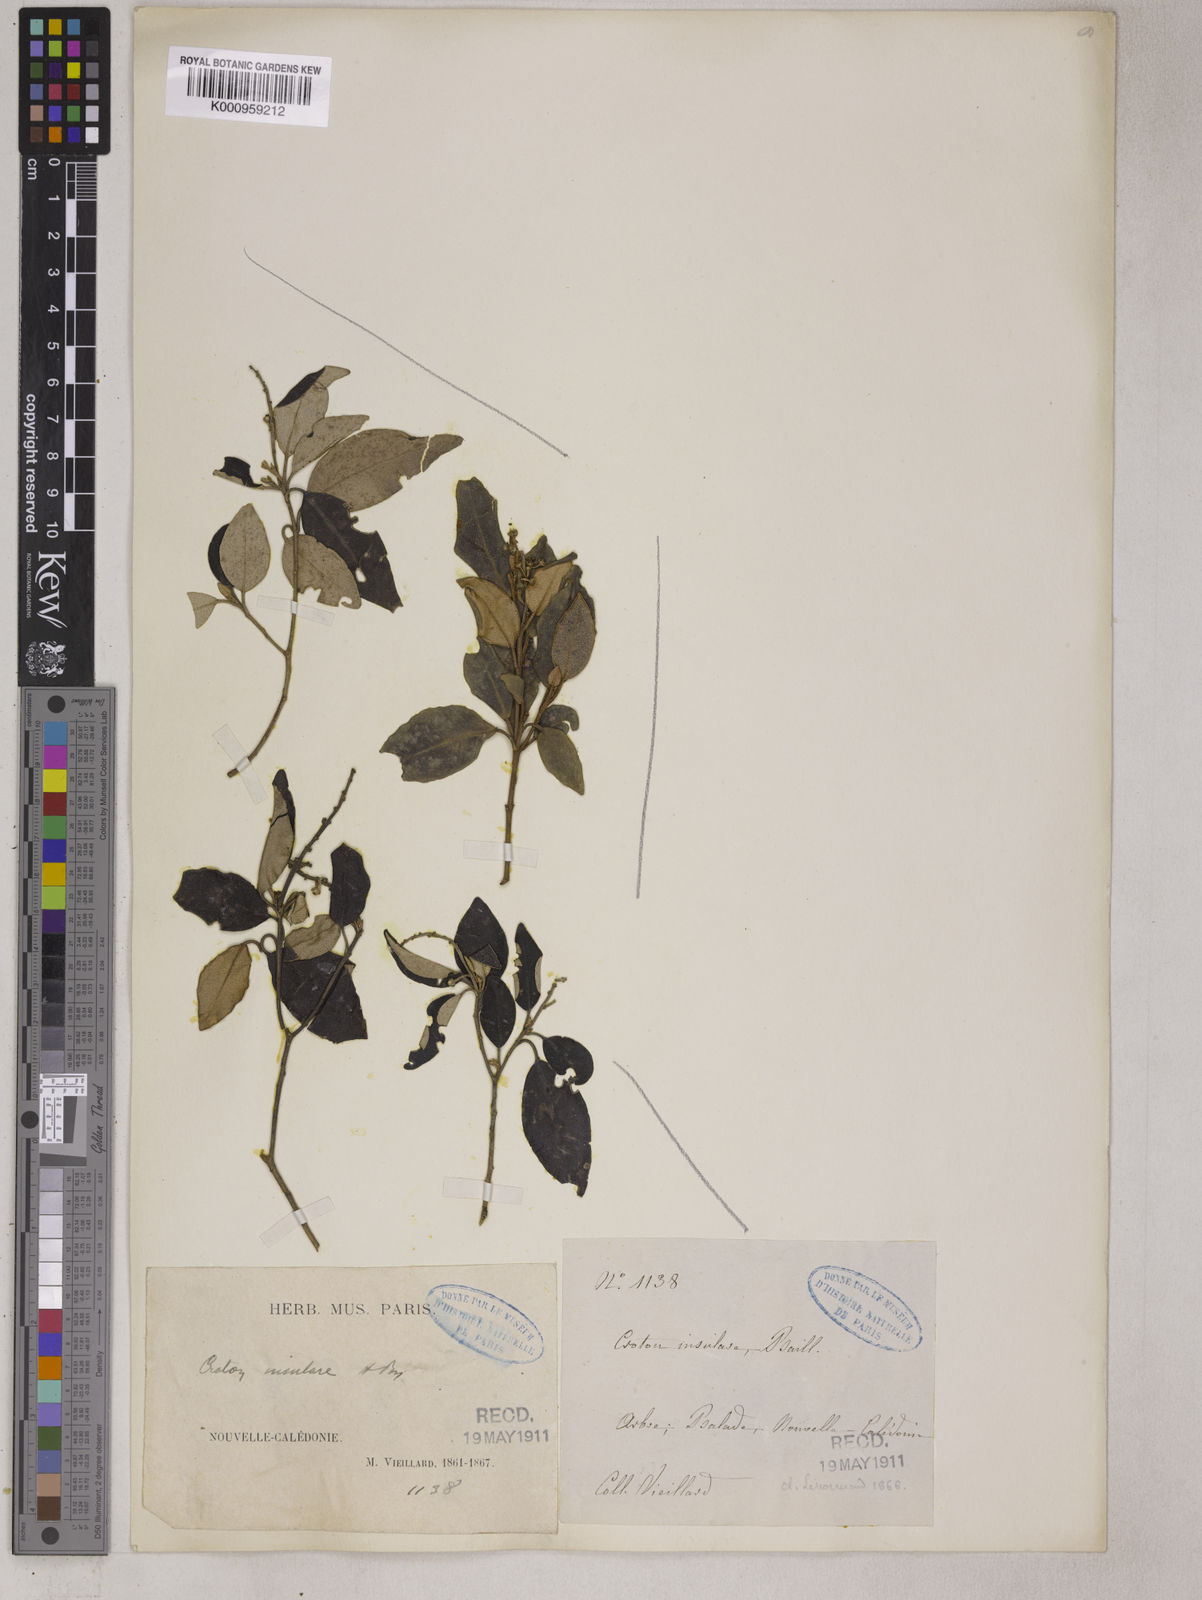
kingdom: Plantae
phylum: Tracheophyta
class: Magnoliopsida
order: Malpighiales
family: Euphorbiaceae
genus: Croton
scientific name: Croton insularis
